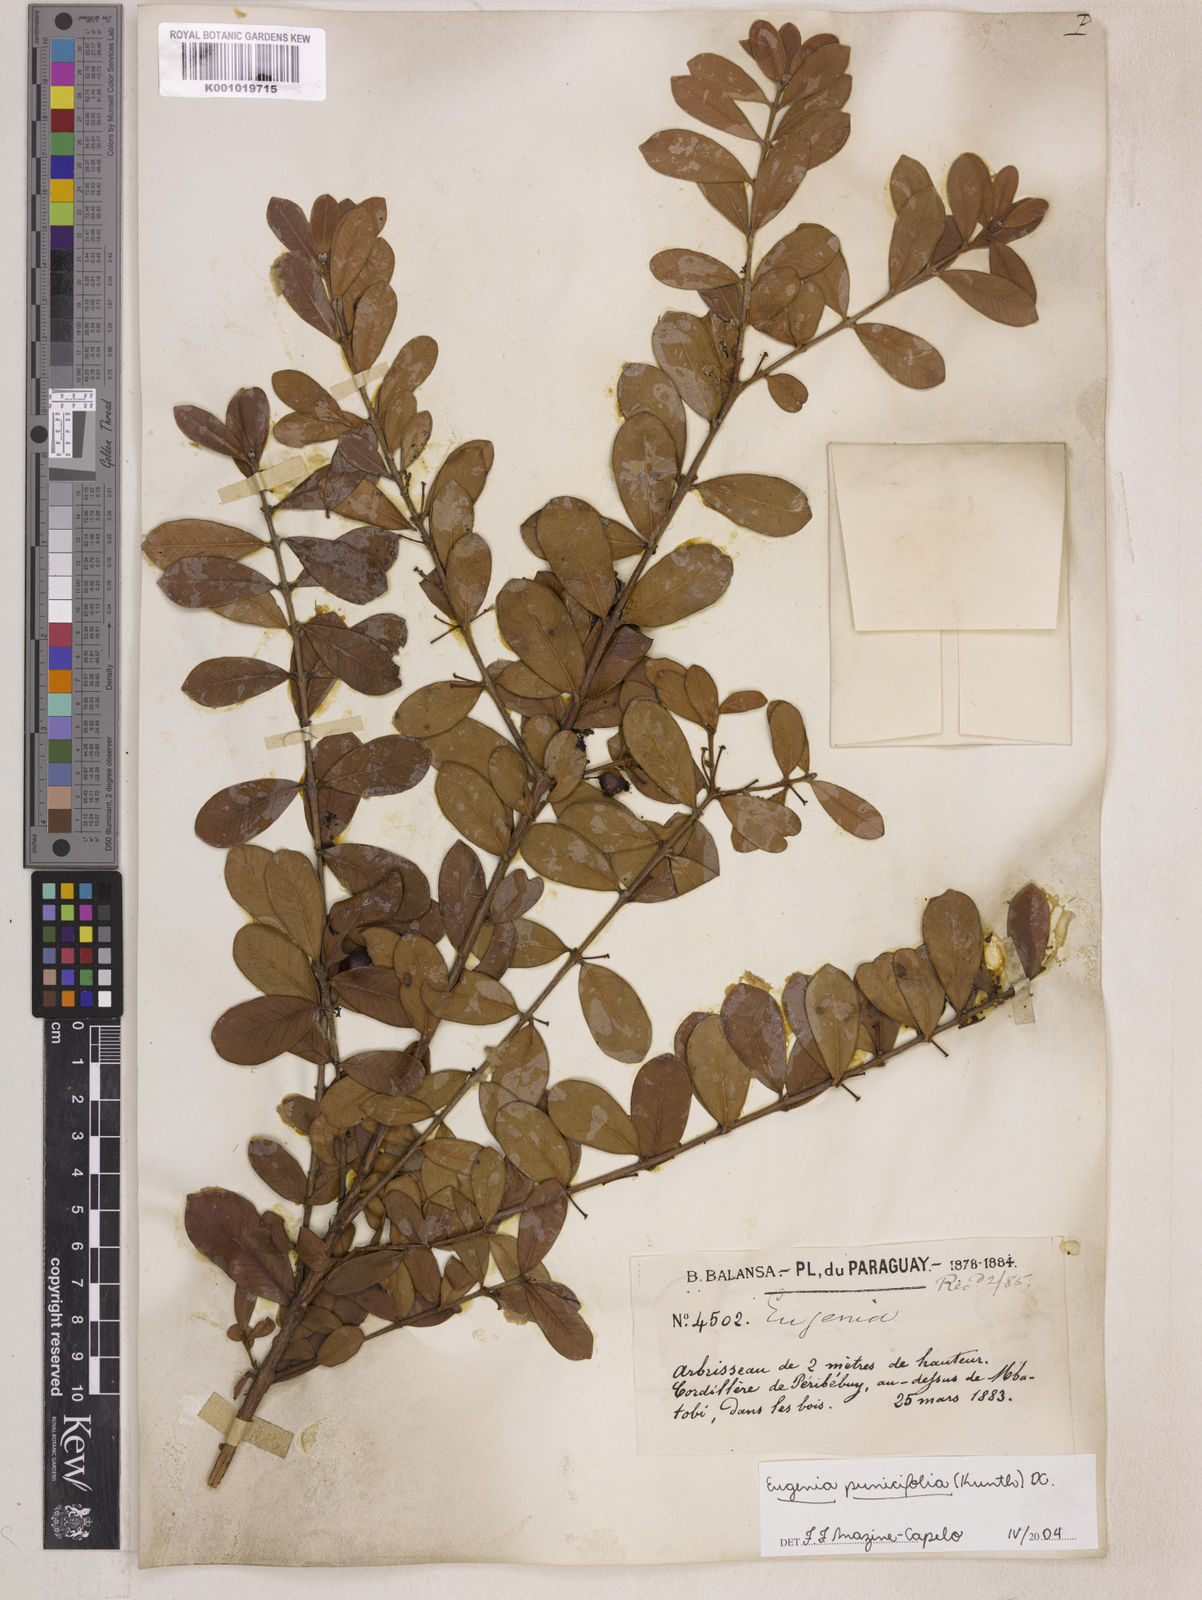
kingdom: Plantae
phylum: Tracheophyta
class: Magnoliopsida
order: Myrtales
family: Myrtaceae
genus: Eugenia
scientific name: Eugenia punicifolia
